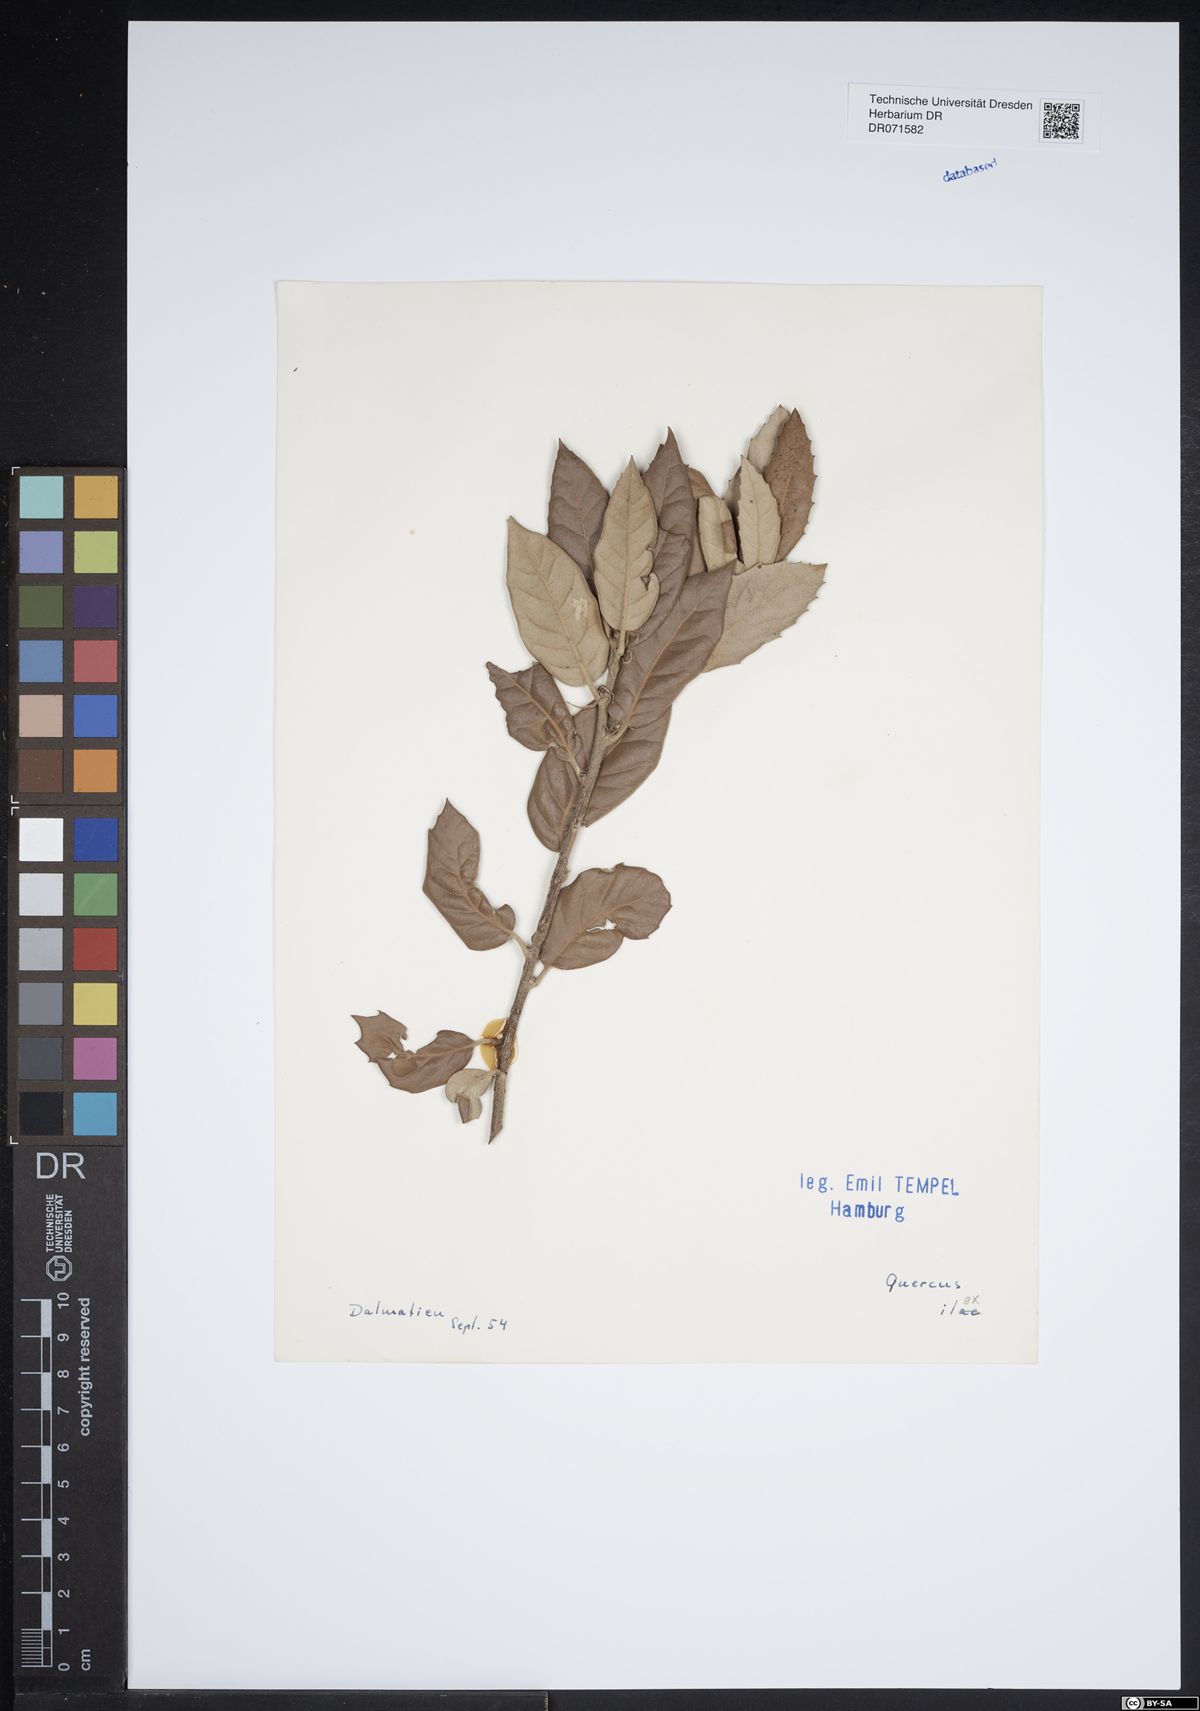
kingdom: Plantae
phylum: Tracheophyta
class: Magnoliopsida
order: Fagales
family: Fagaceae
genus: Quercus
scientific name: Quercus ilex
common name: Evergreen oak
